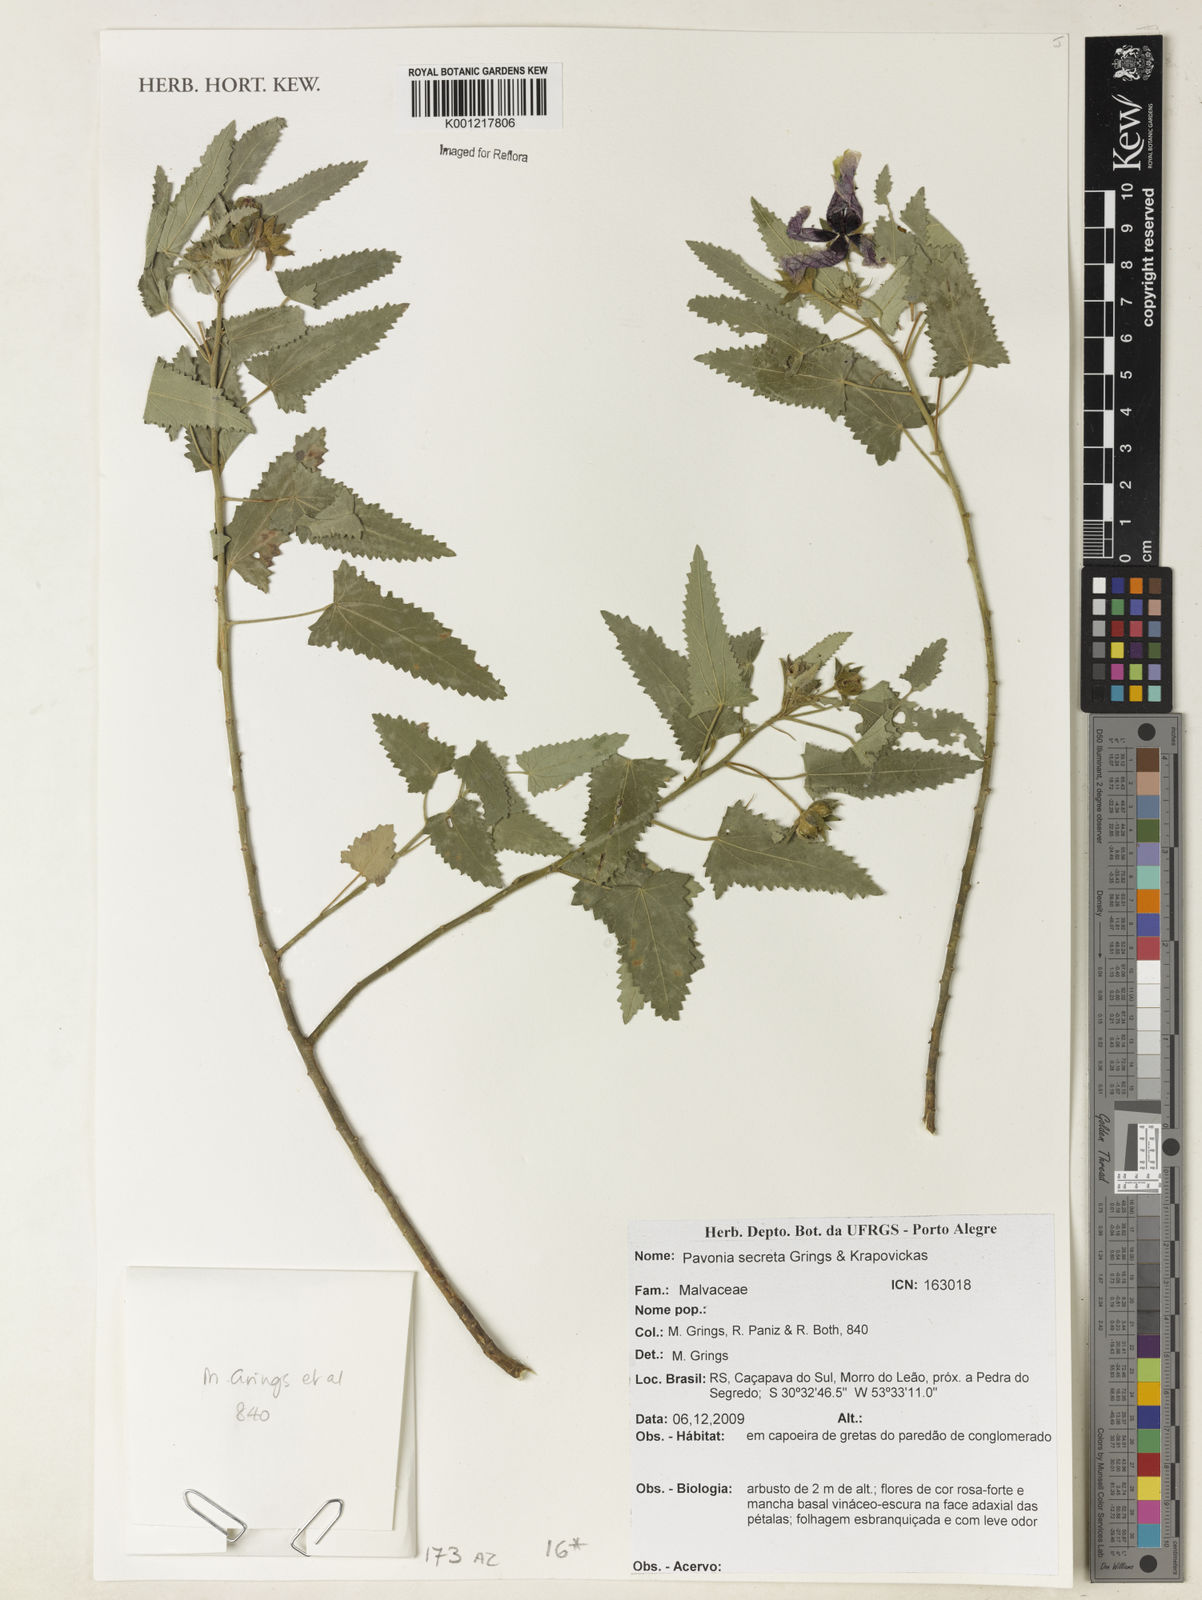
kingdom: Plantae
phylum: Tracheophyta
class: Magnoliopsida
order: Malvales
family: Malvaceae
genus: Pavonia
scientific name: Pavonia
